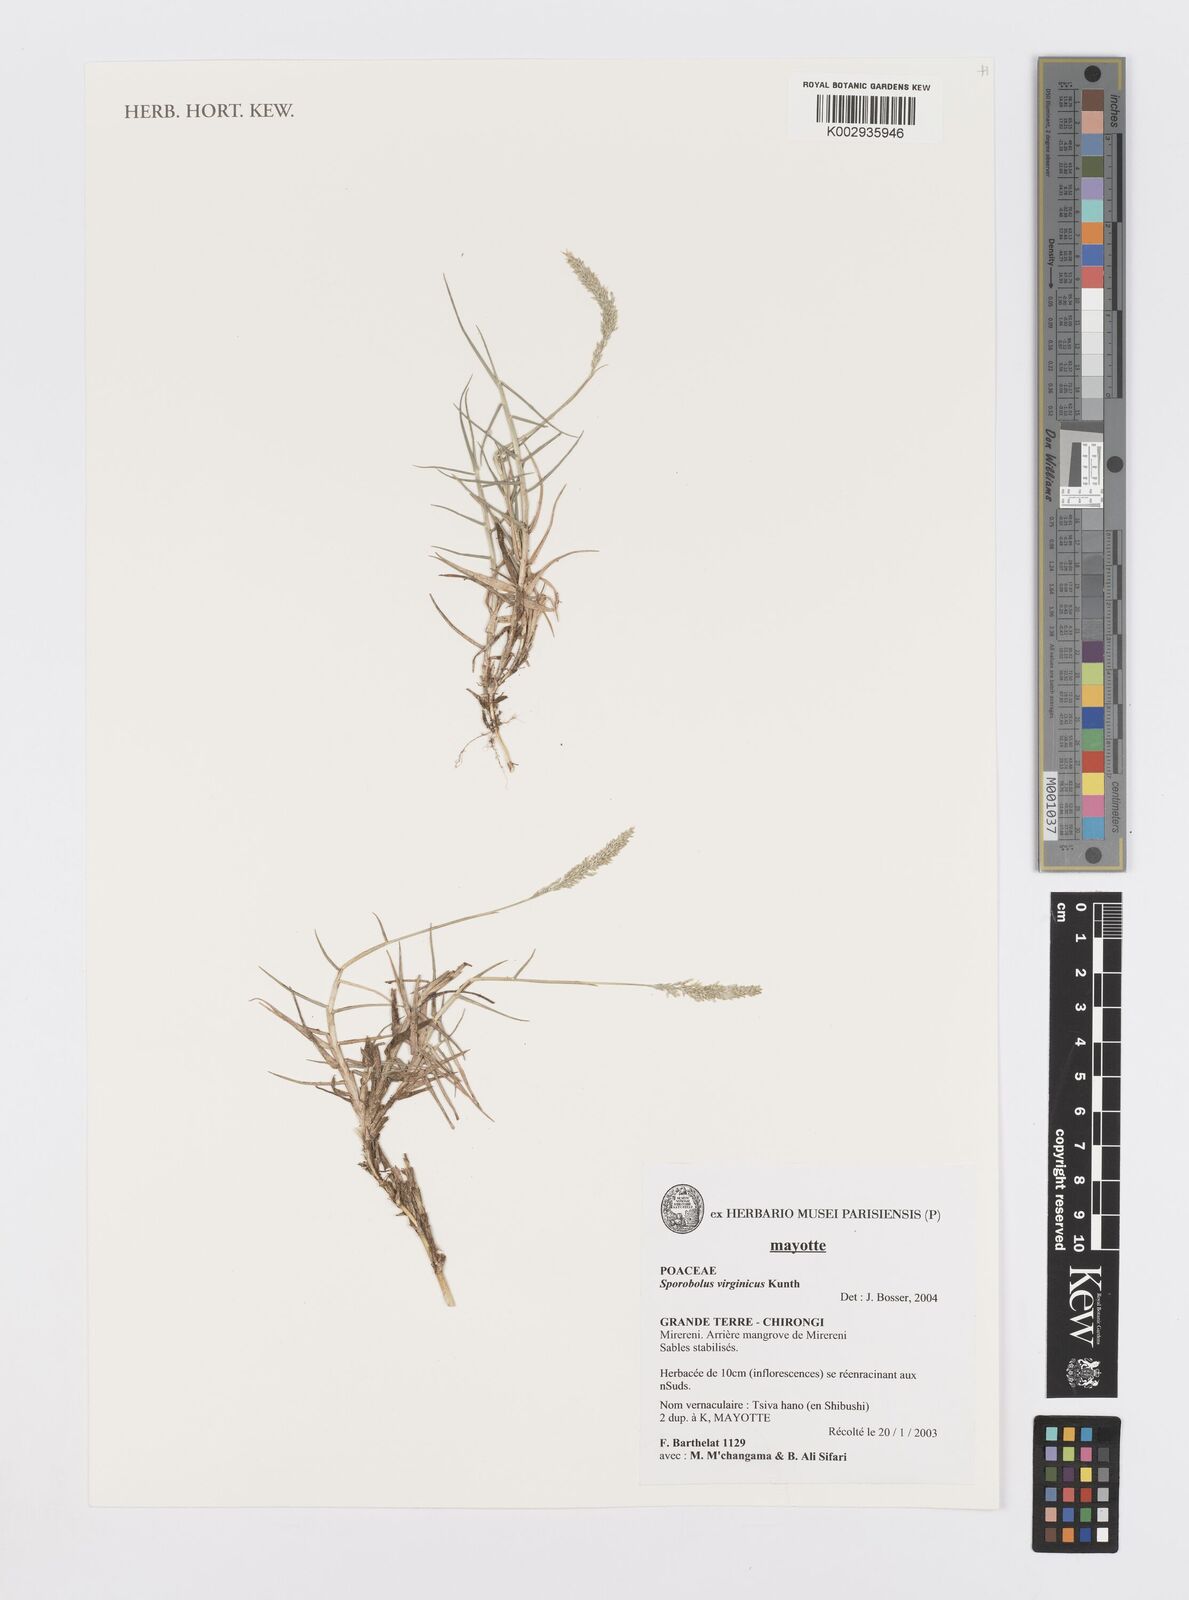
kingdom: Plantae
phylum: Tracheophyta
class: Liliopsida
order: Poales
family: Poaceae
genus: Sporobolus
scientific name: Sporobolus virginicus
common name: Beach dropseed
